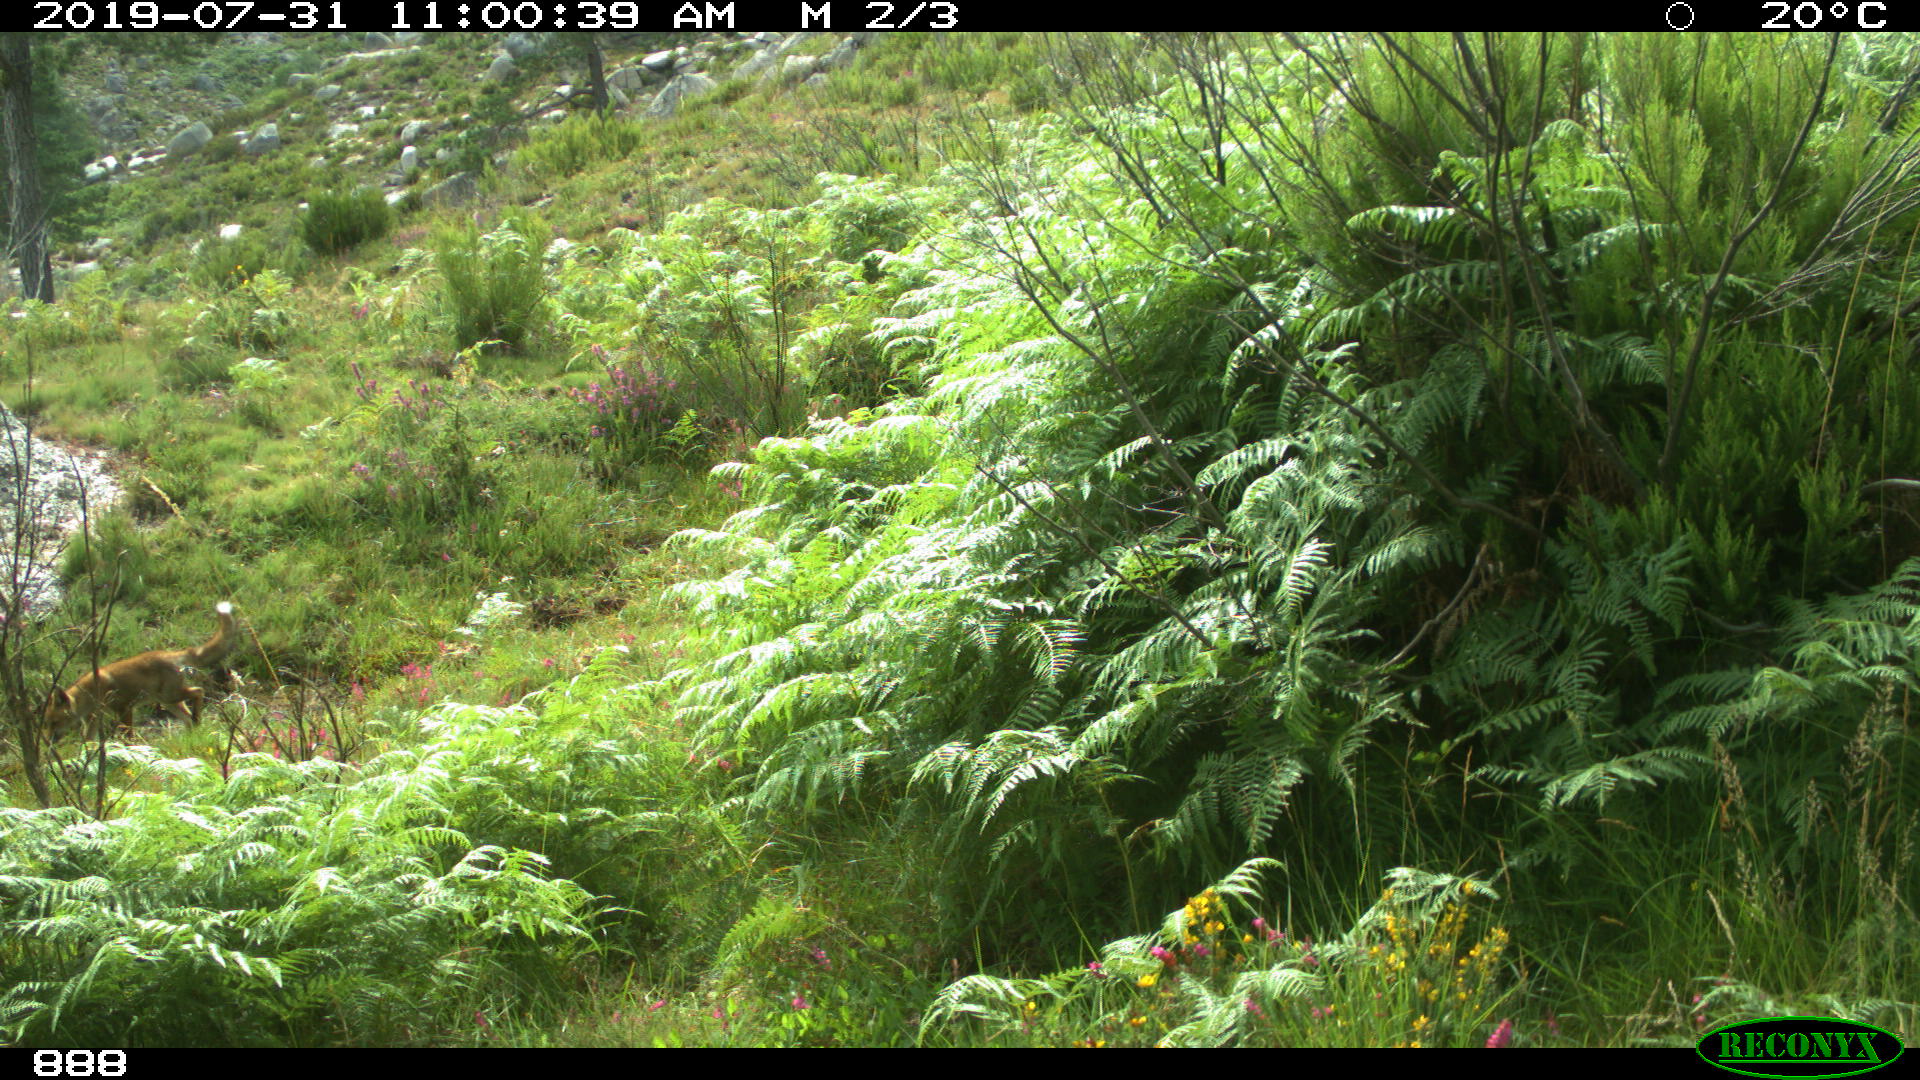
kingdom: Animalia
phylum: Chordata
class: Mammalia
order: Carnivora
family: Canidae
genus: Vulpes
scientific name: Vulpes vulpes
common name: Red fox
